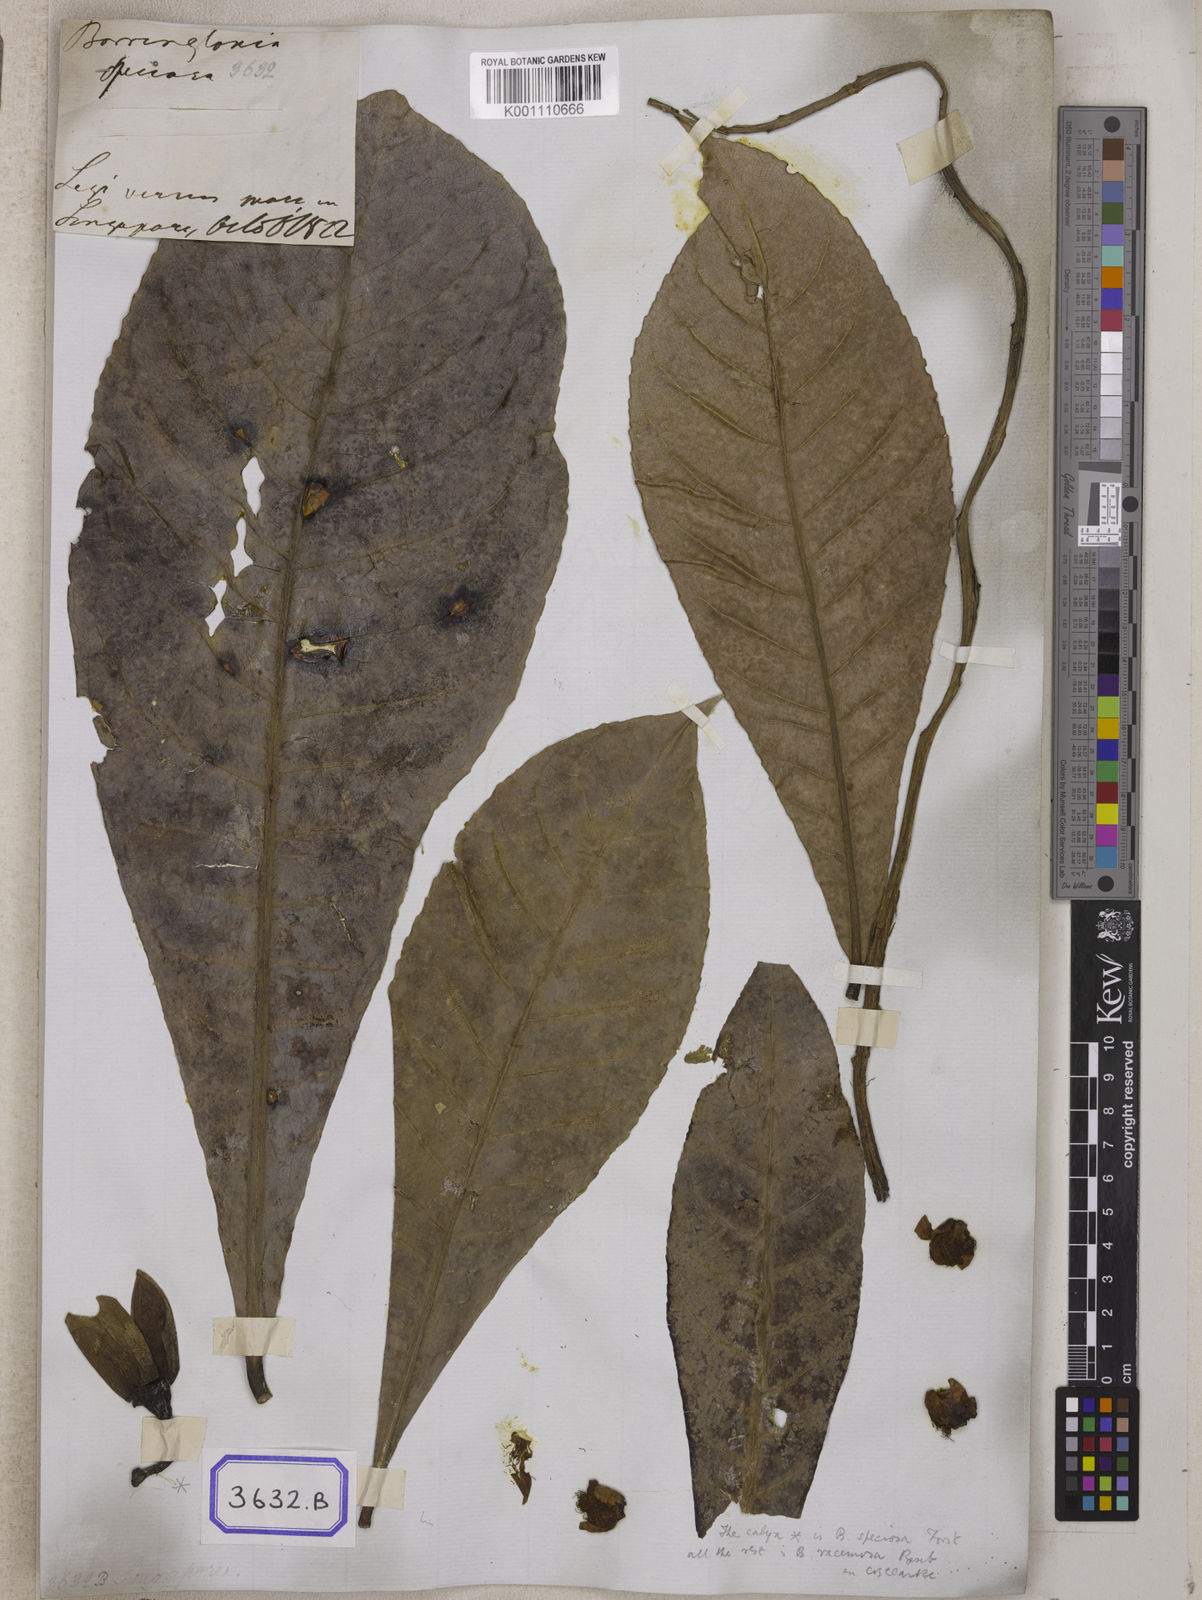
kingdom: Plantae
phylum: Tracheophyta
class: Magnoliopsida
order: Ericales
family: Lecythidaceae
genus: Barringtonia
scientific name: Barringtonia
